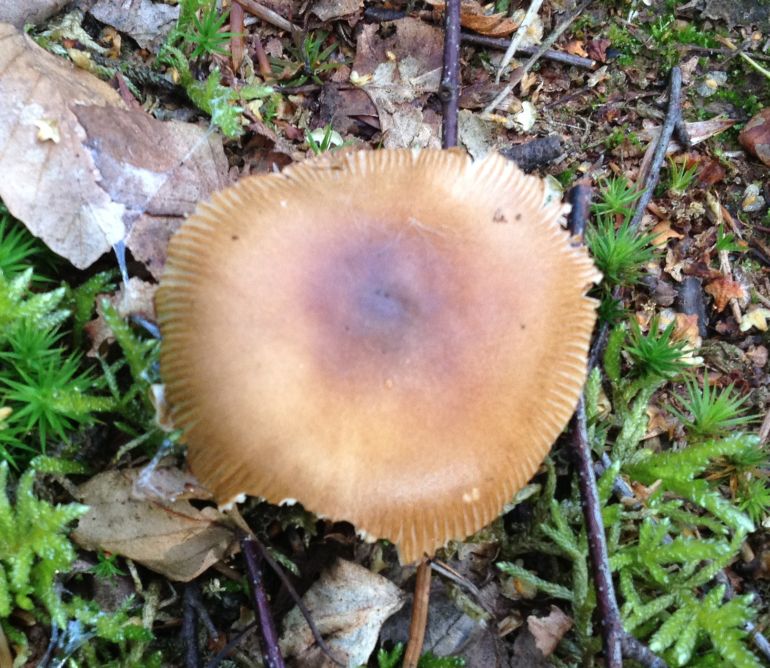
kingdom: Fungi
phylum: Basidiomycota
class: Agaricomycetes
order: Agaricales
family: Amanitaceae
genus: Amanita
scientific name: Amanita fulva
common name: brun kam-fluesvamp
